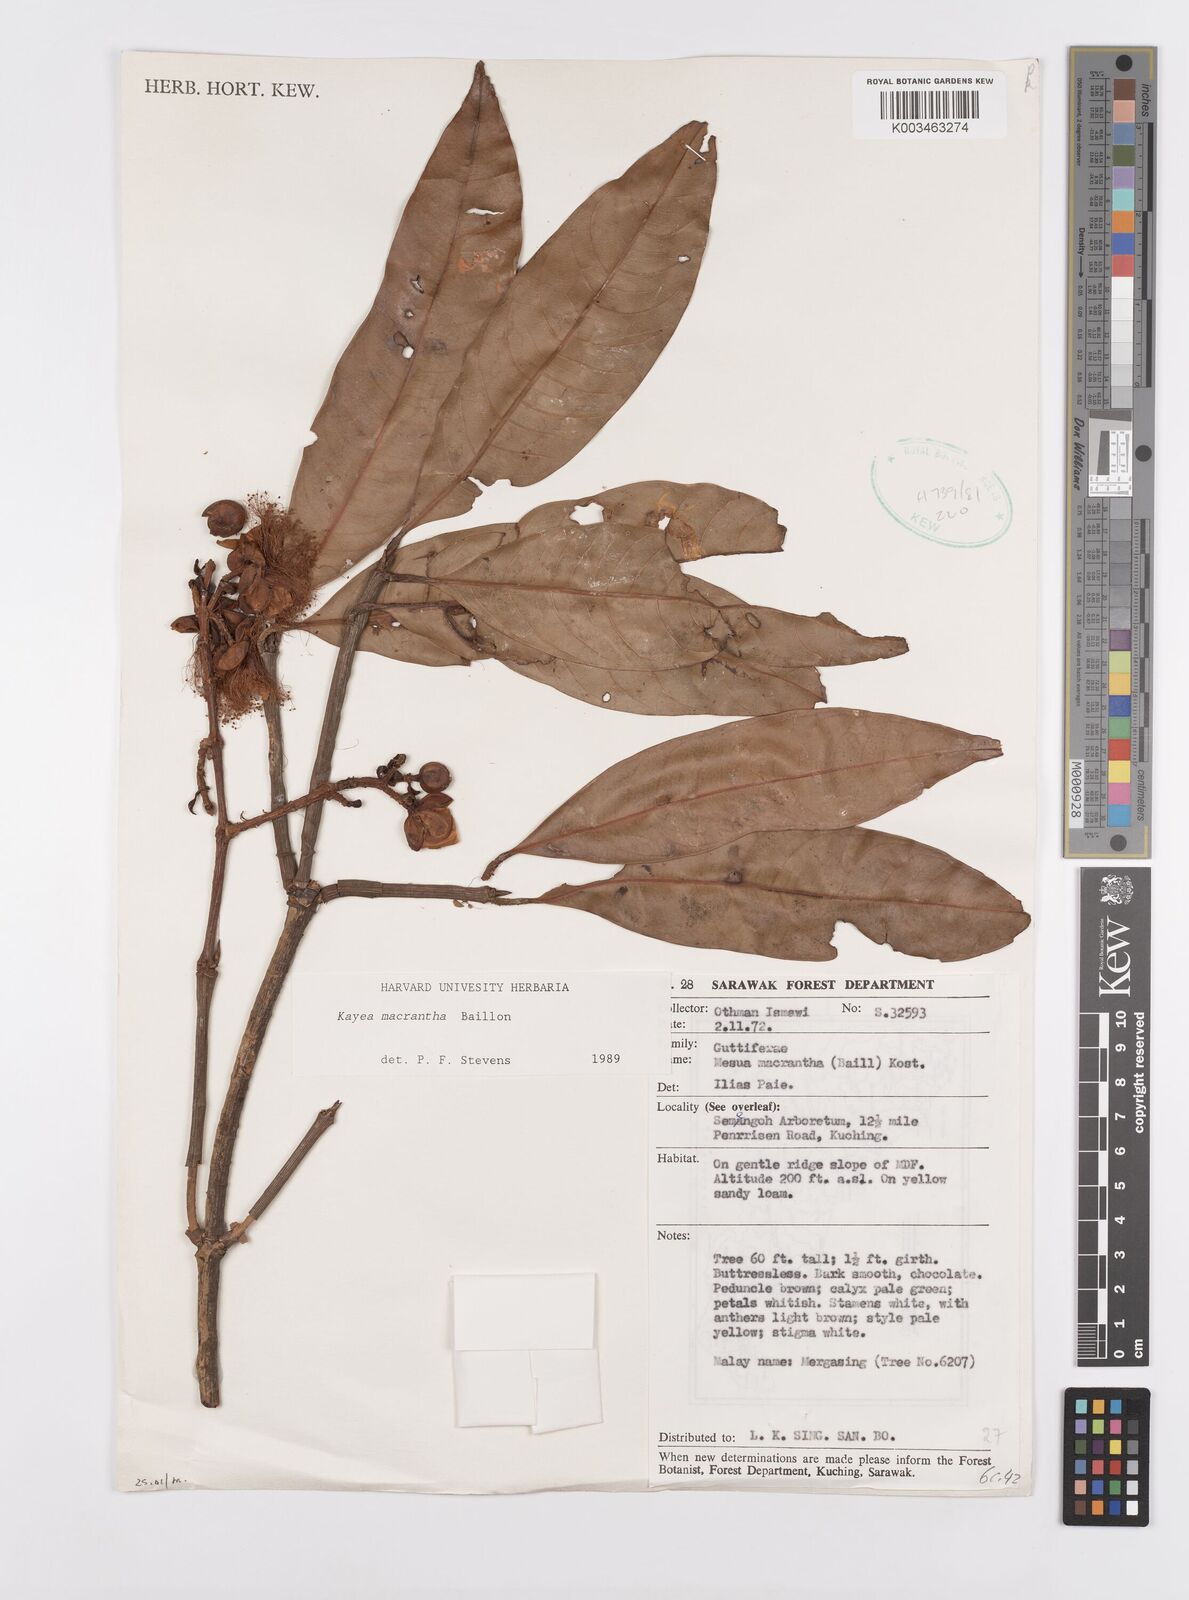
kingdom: Plantae
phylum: Tracheophyta
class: Magnoliopsida
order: Malpighiales
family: Calophyllaceae
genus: Kayea
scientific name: Kayea macrantha
